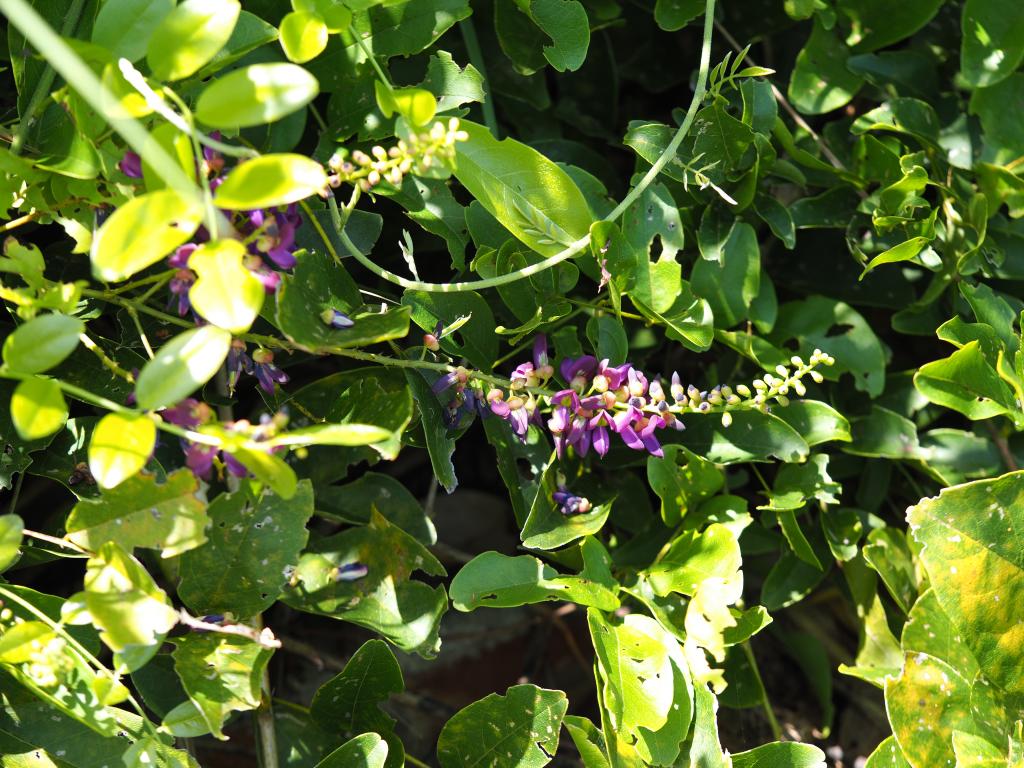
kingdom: Plantae
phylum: Tracheophyta
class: Magnoliopsida
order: Fabales
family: Fabaceae
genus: Wisteriopsis
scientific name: Wisteriopsis reticulata
